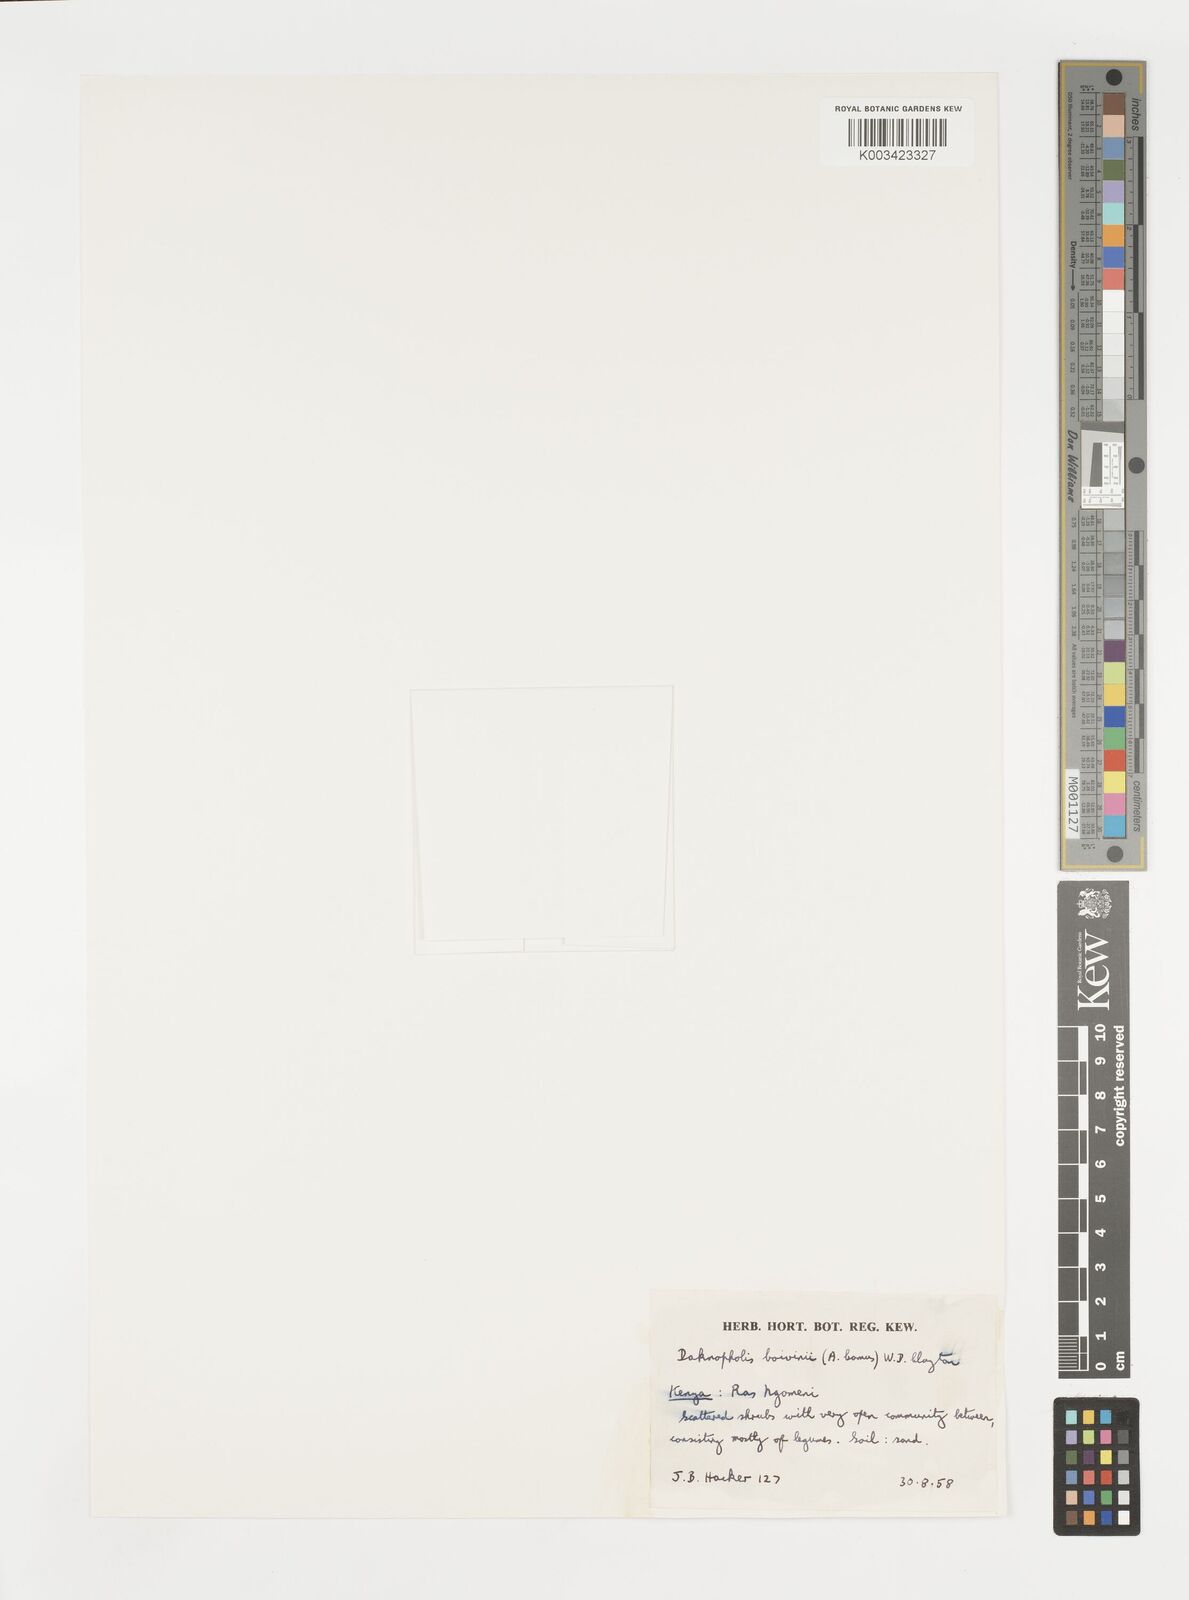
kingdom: Plantae
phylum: Tracheophyta
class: Liliopsida
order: Poales
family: Poaceae
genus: Daknopholis
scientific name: Daknopholis boivinii
